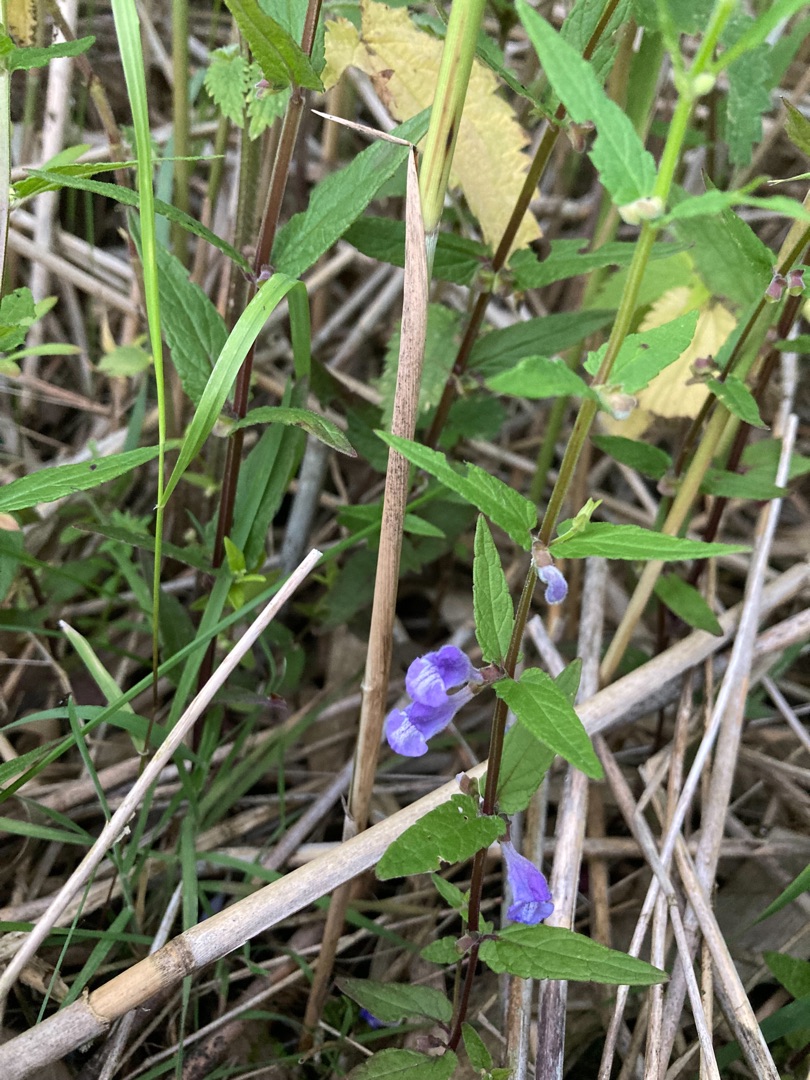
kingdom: Plantae
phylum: Tracheophyta
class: Magnoliopsida
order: Lamiales
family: Lamiaceae
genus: Scutellaria
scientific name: Scutellaria galericulata
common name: Almindelig skjolddrager
